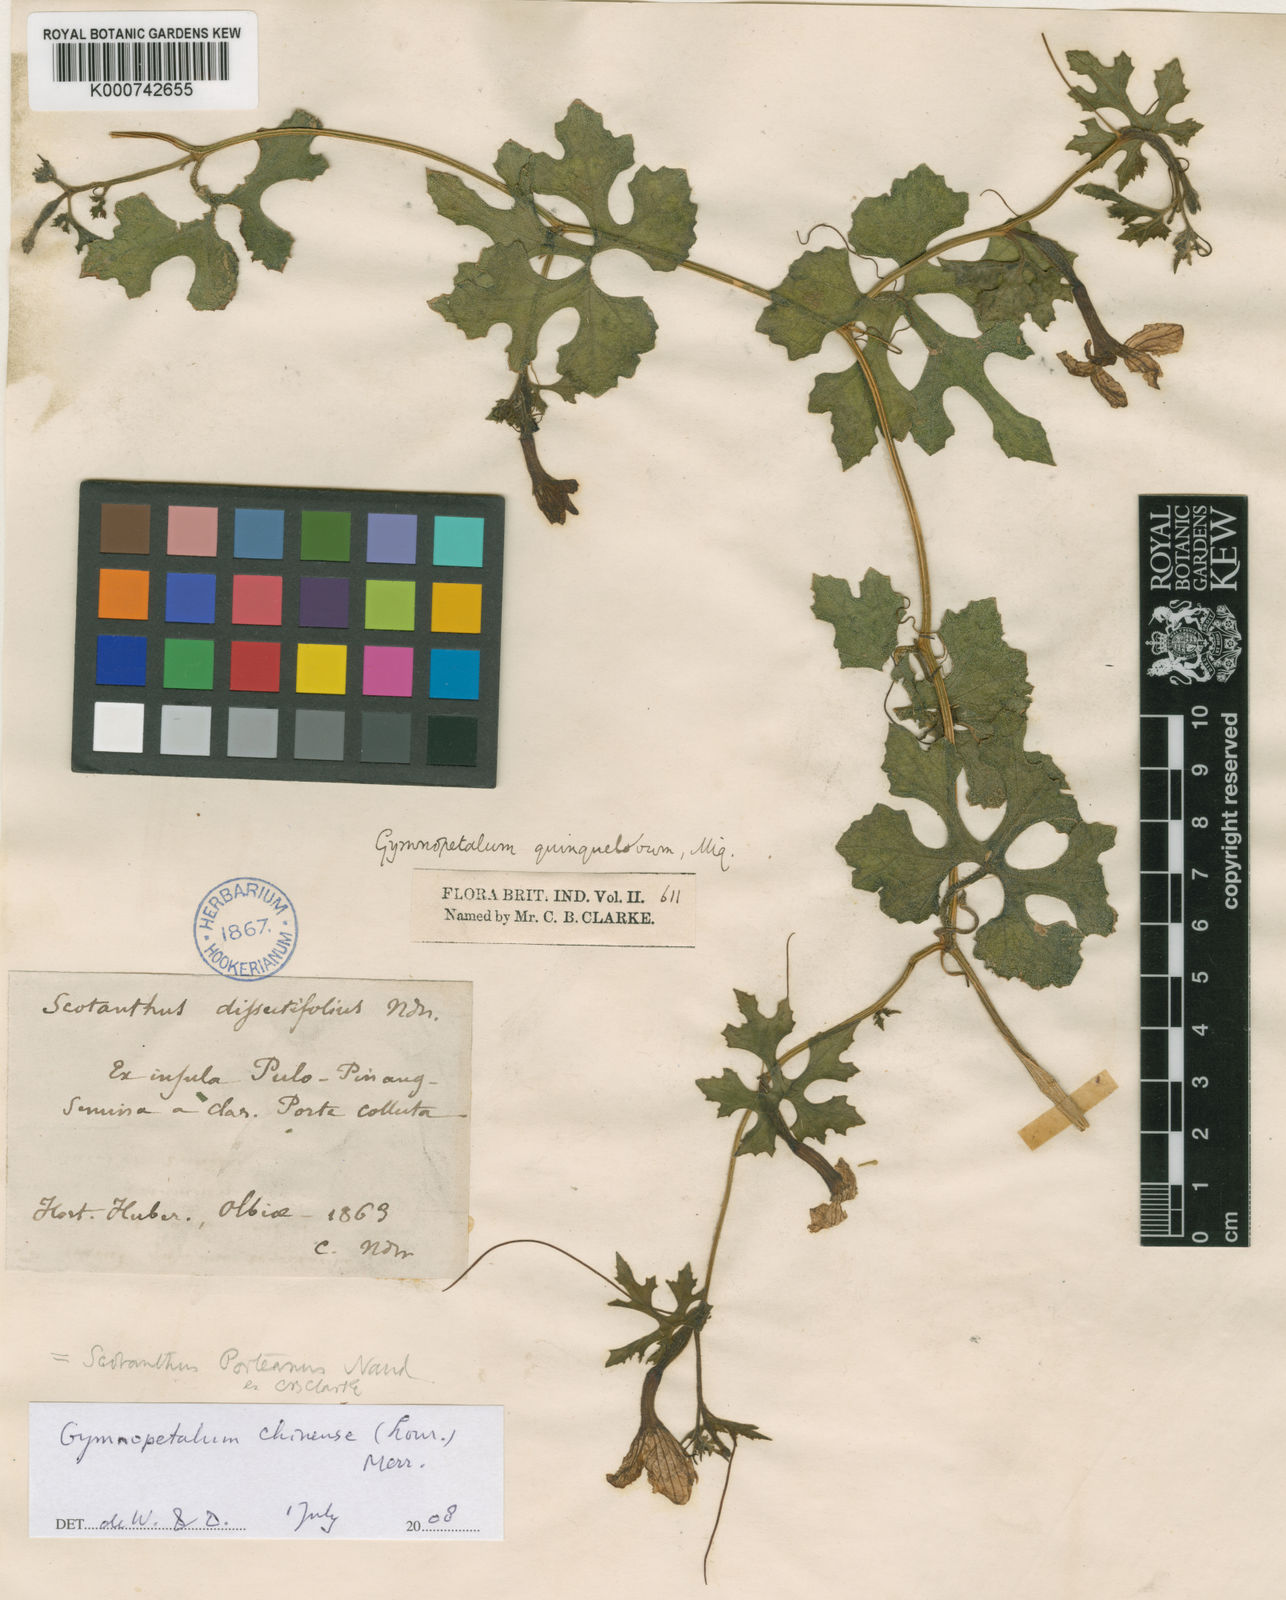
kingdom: Plantae
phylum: Tracheophyta
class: Magnoliopsida
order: Cucurbitales
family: Cucurbitaceae
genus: Trichosanthes
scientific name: Trichosanthes costata
